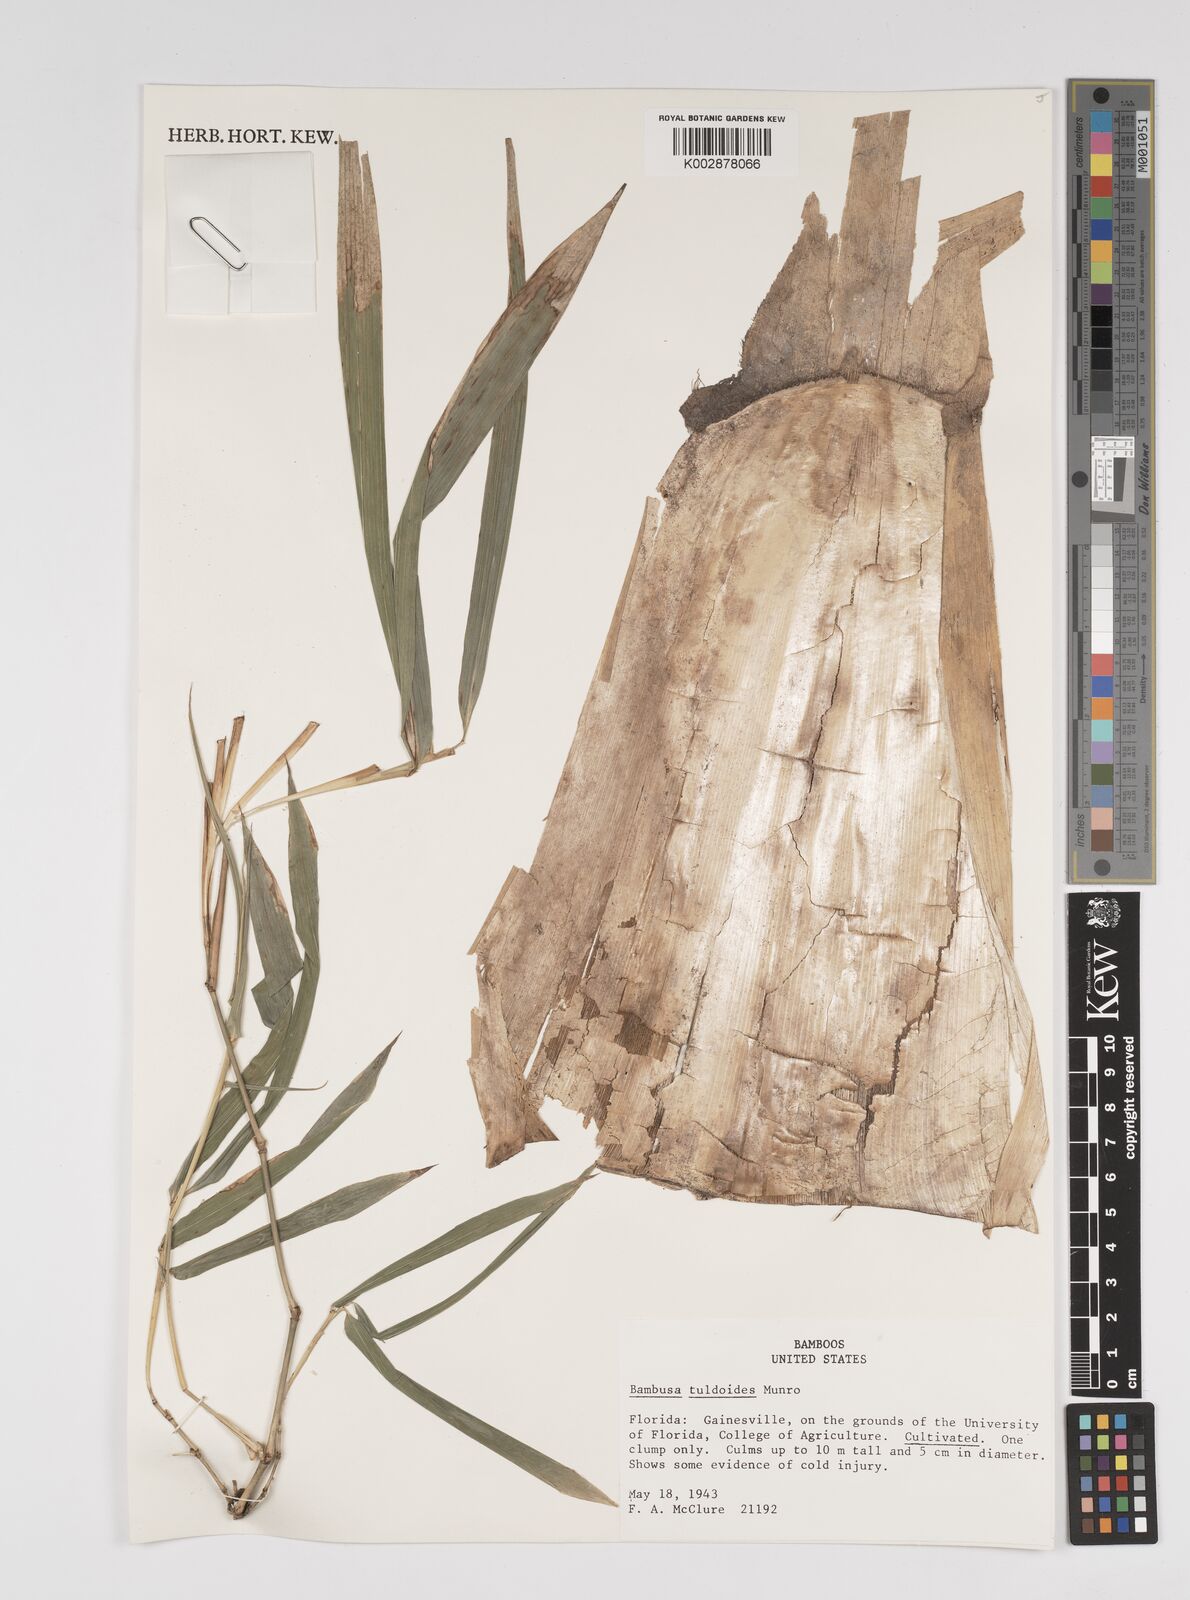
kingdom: Plantae
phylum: Tracheophyta
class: Liliopsida
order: Poales
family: Poaceae
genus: Bambusa
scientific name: Bambusa tuldoides
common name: Verdant bamboo
